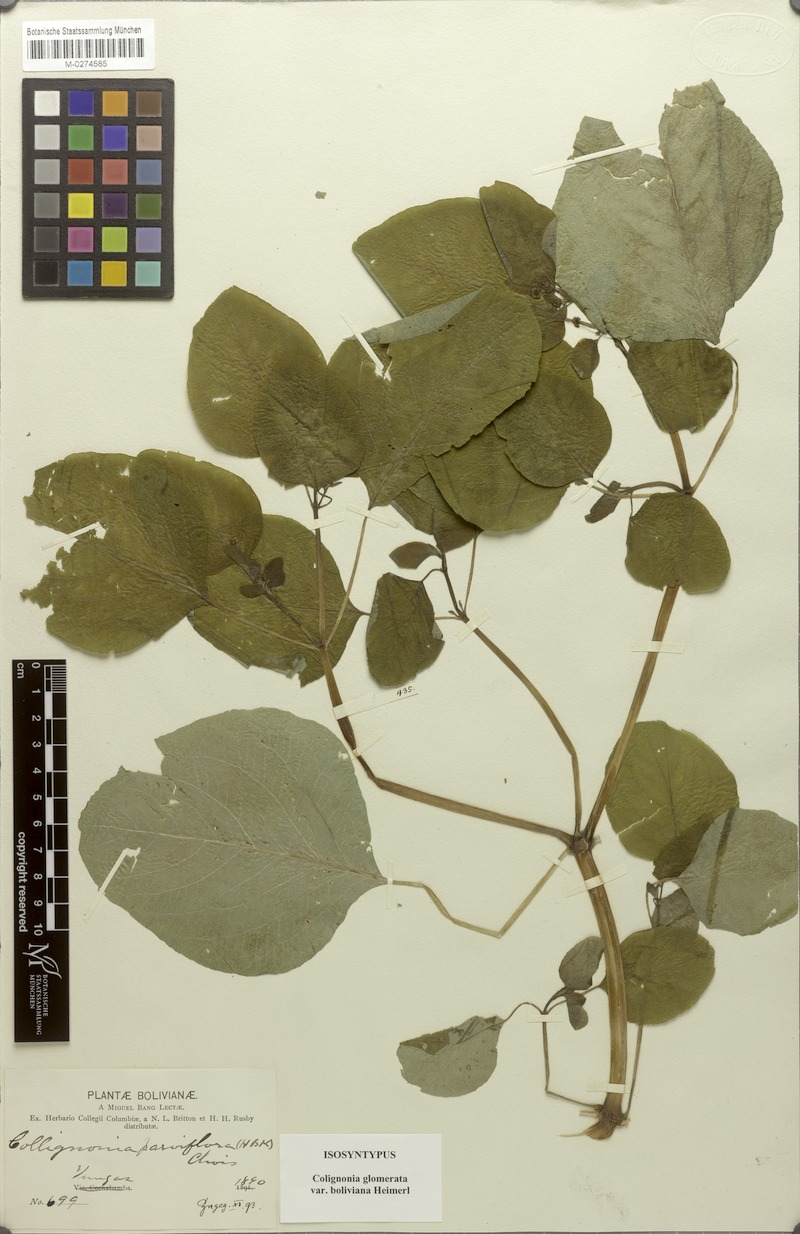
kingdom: Plantae
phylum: Tracheophyta
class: Magnoliopsida
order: Caryophyllales
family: Nyctaginaceae
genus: Colignonia
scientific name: Colignonia glomerata
